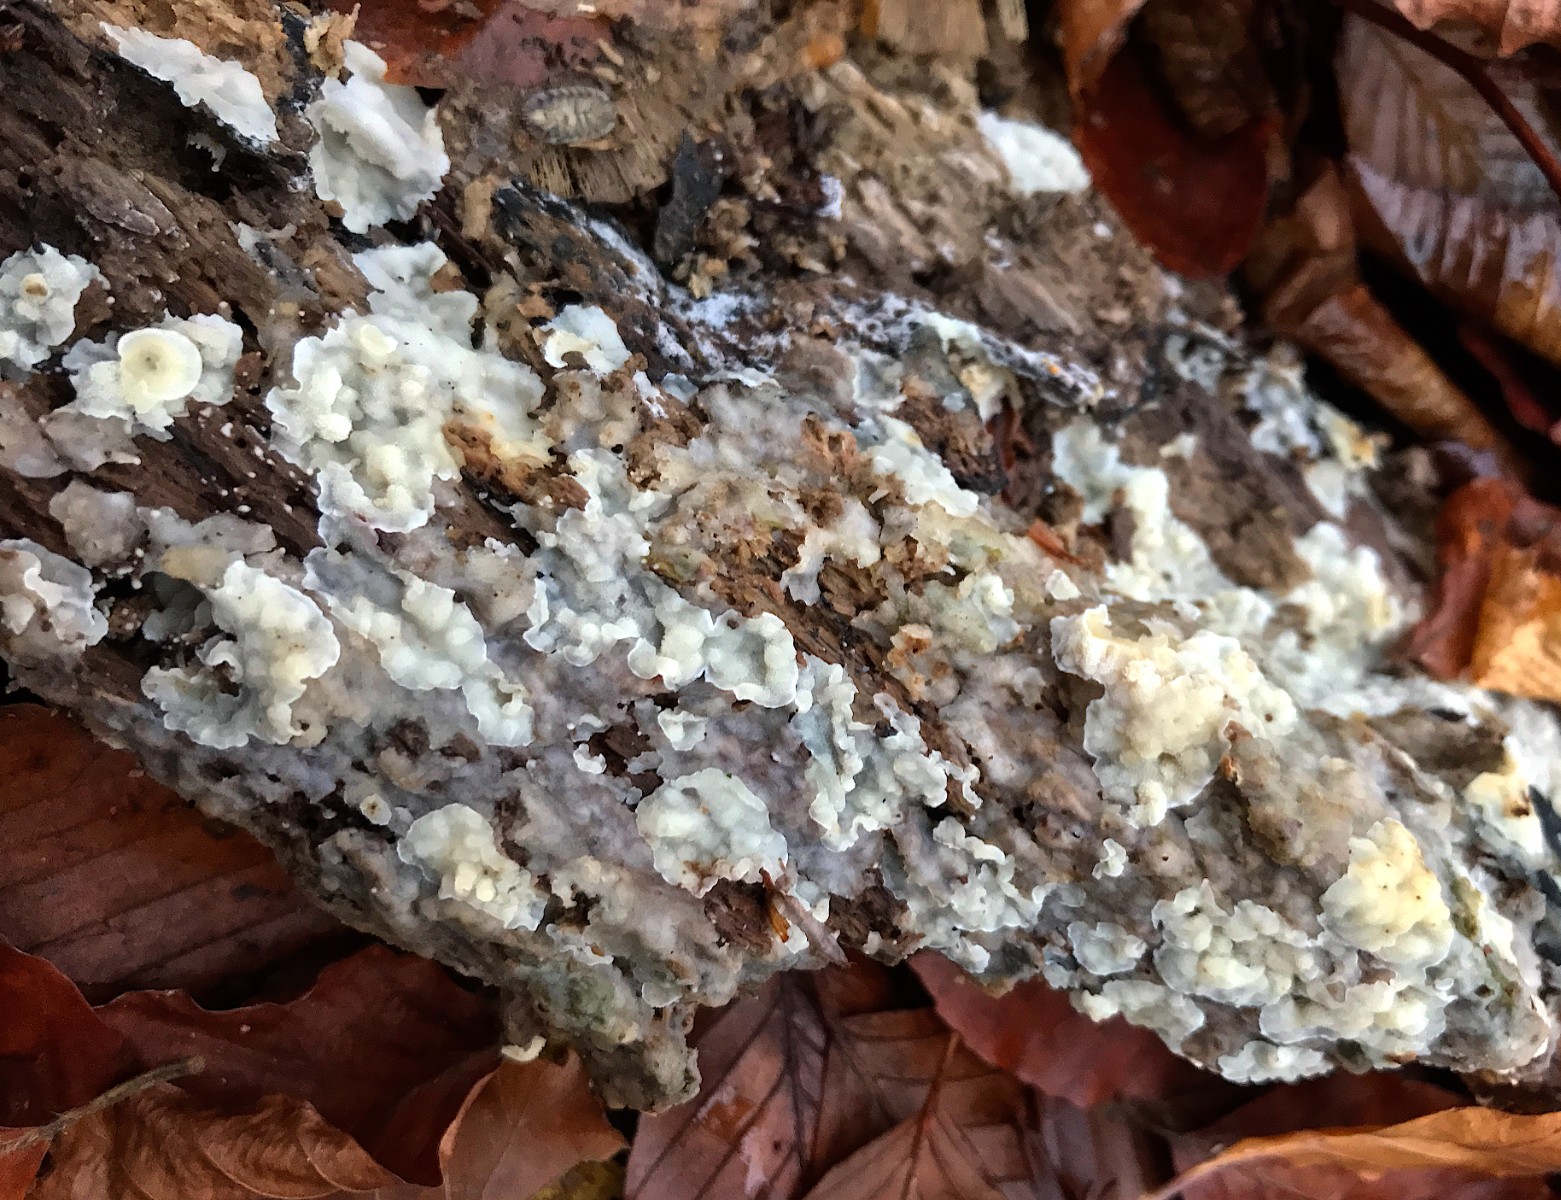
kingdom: Fungi
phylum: Basidiomycota
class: Agaricomycetes
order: Polyporales
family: Meruliaceae
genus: Physisporinus
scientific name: Physisporinus vitreus
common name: mastesvamp
